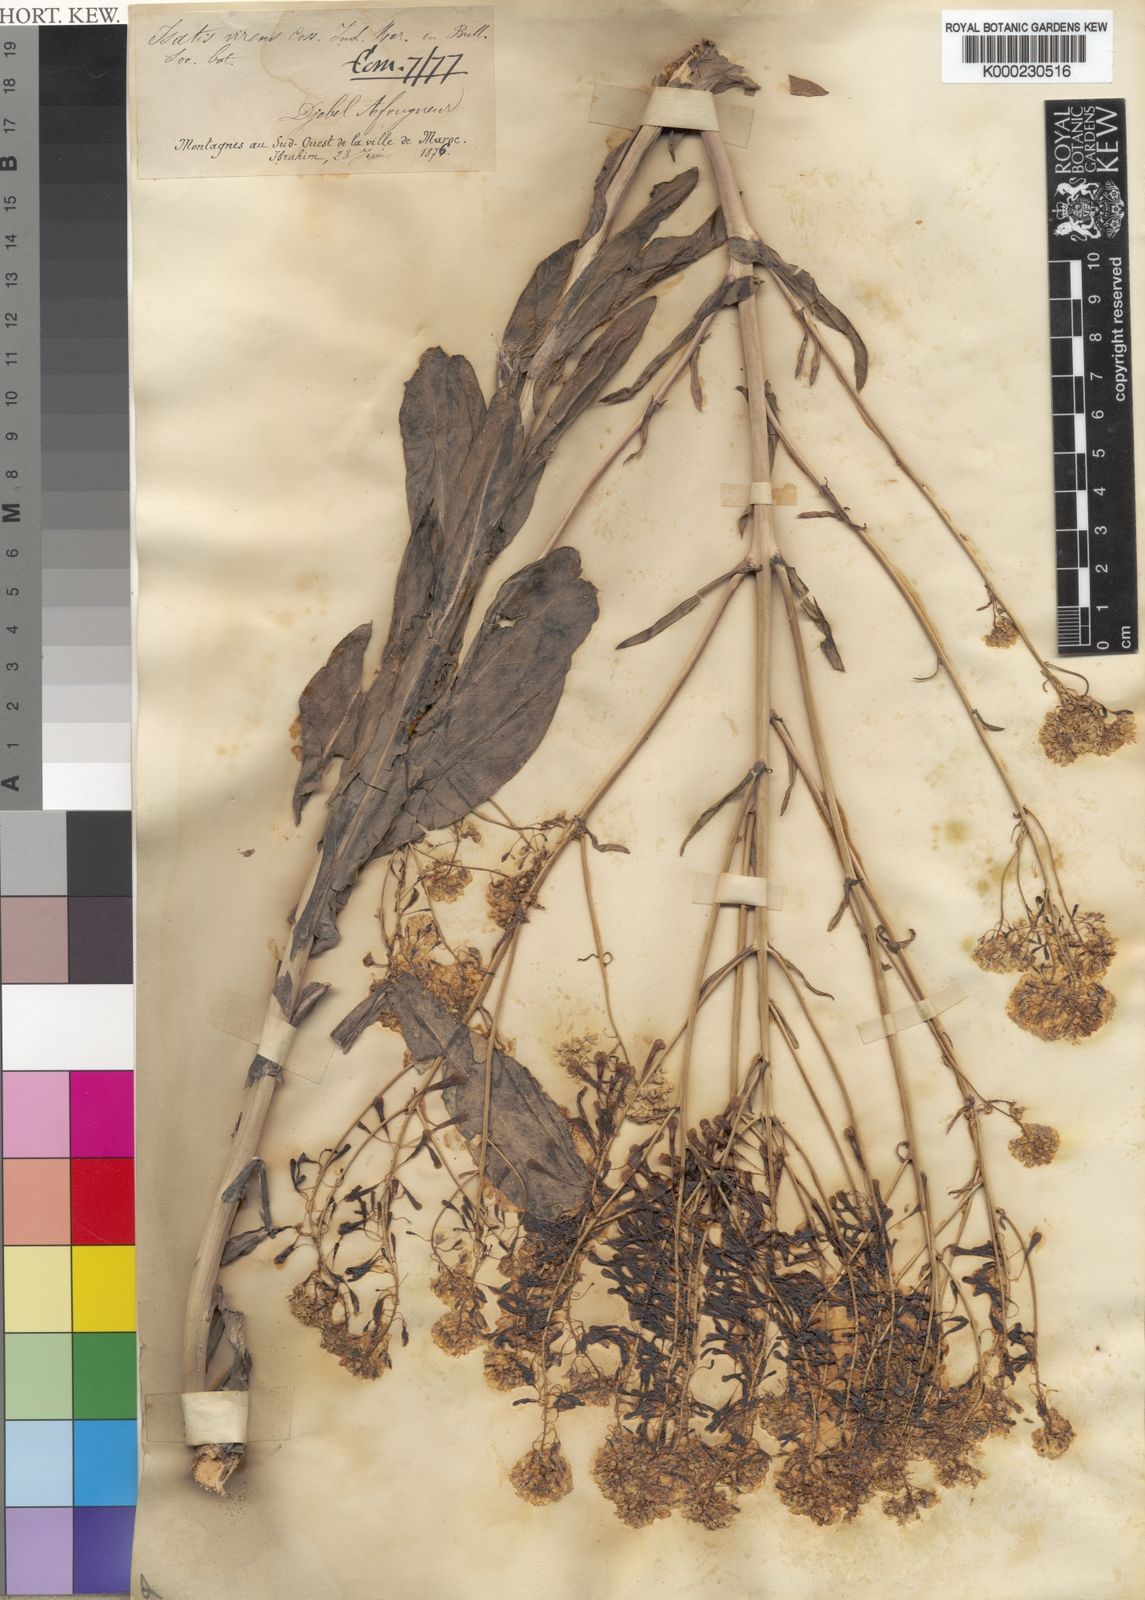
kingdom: Plantae
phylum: Tracheophyta
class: Magnoliopsida
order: Brassicales
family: Brassicaceae
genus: Isatis
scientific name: Isatis tinctoria
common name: Woad
